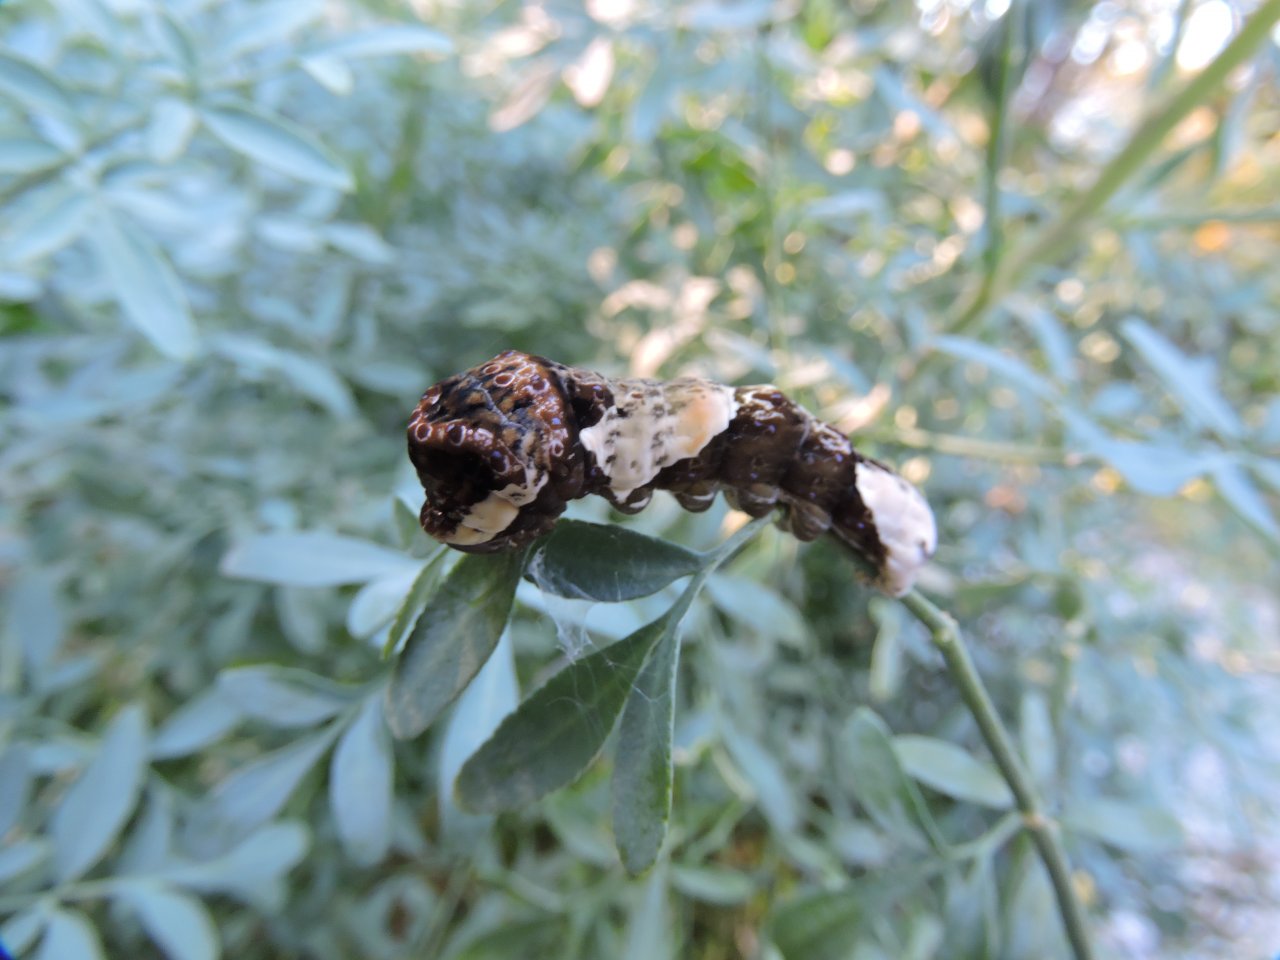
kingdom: Animalia
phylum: Arthropoda
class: Insecta
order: Lepidoptera
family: Papilionidae
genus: Papilio
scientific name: Papilio cresphontes
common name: Eastern Giant Swallowtail
